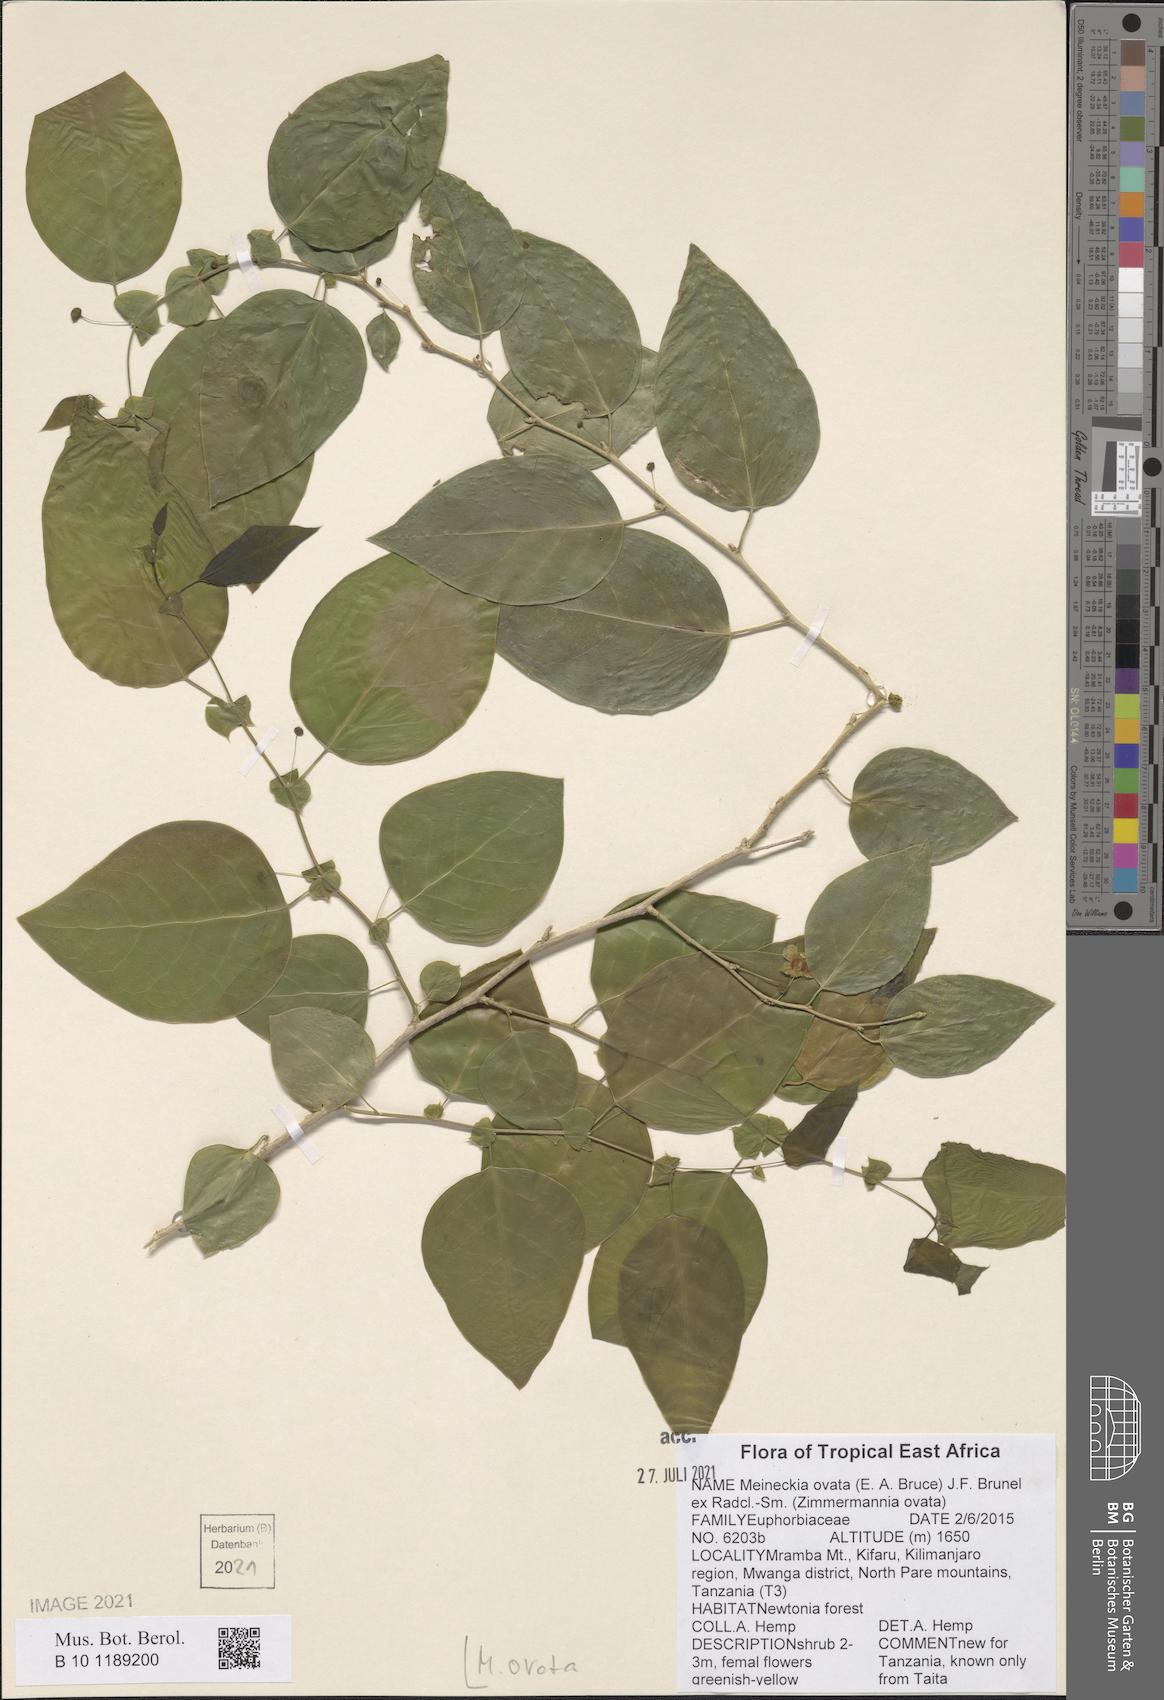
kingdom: Plantae
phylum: Tracheophyta
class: Magnoliopsida
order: Malpighiales
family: Phyllanthaceae
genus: Meineckia
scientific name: Meineckia ovata
